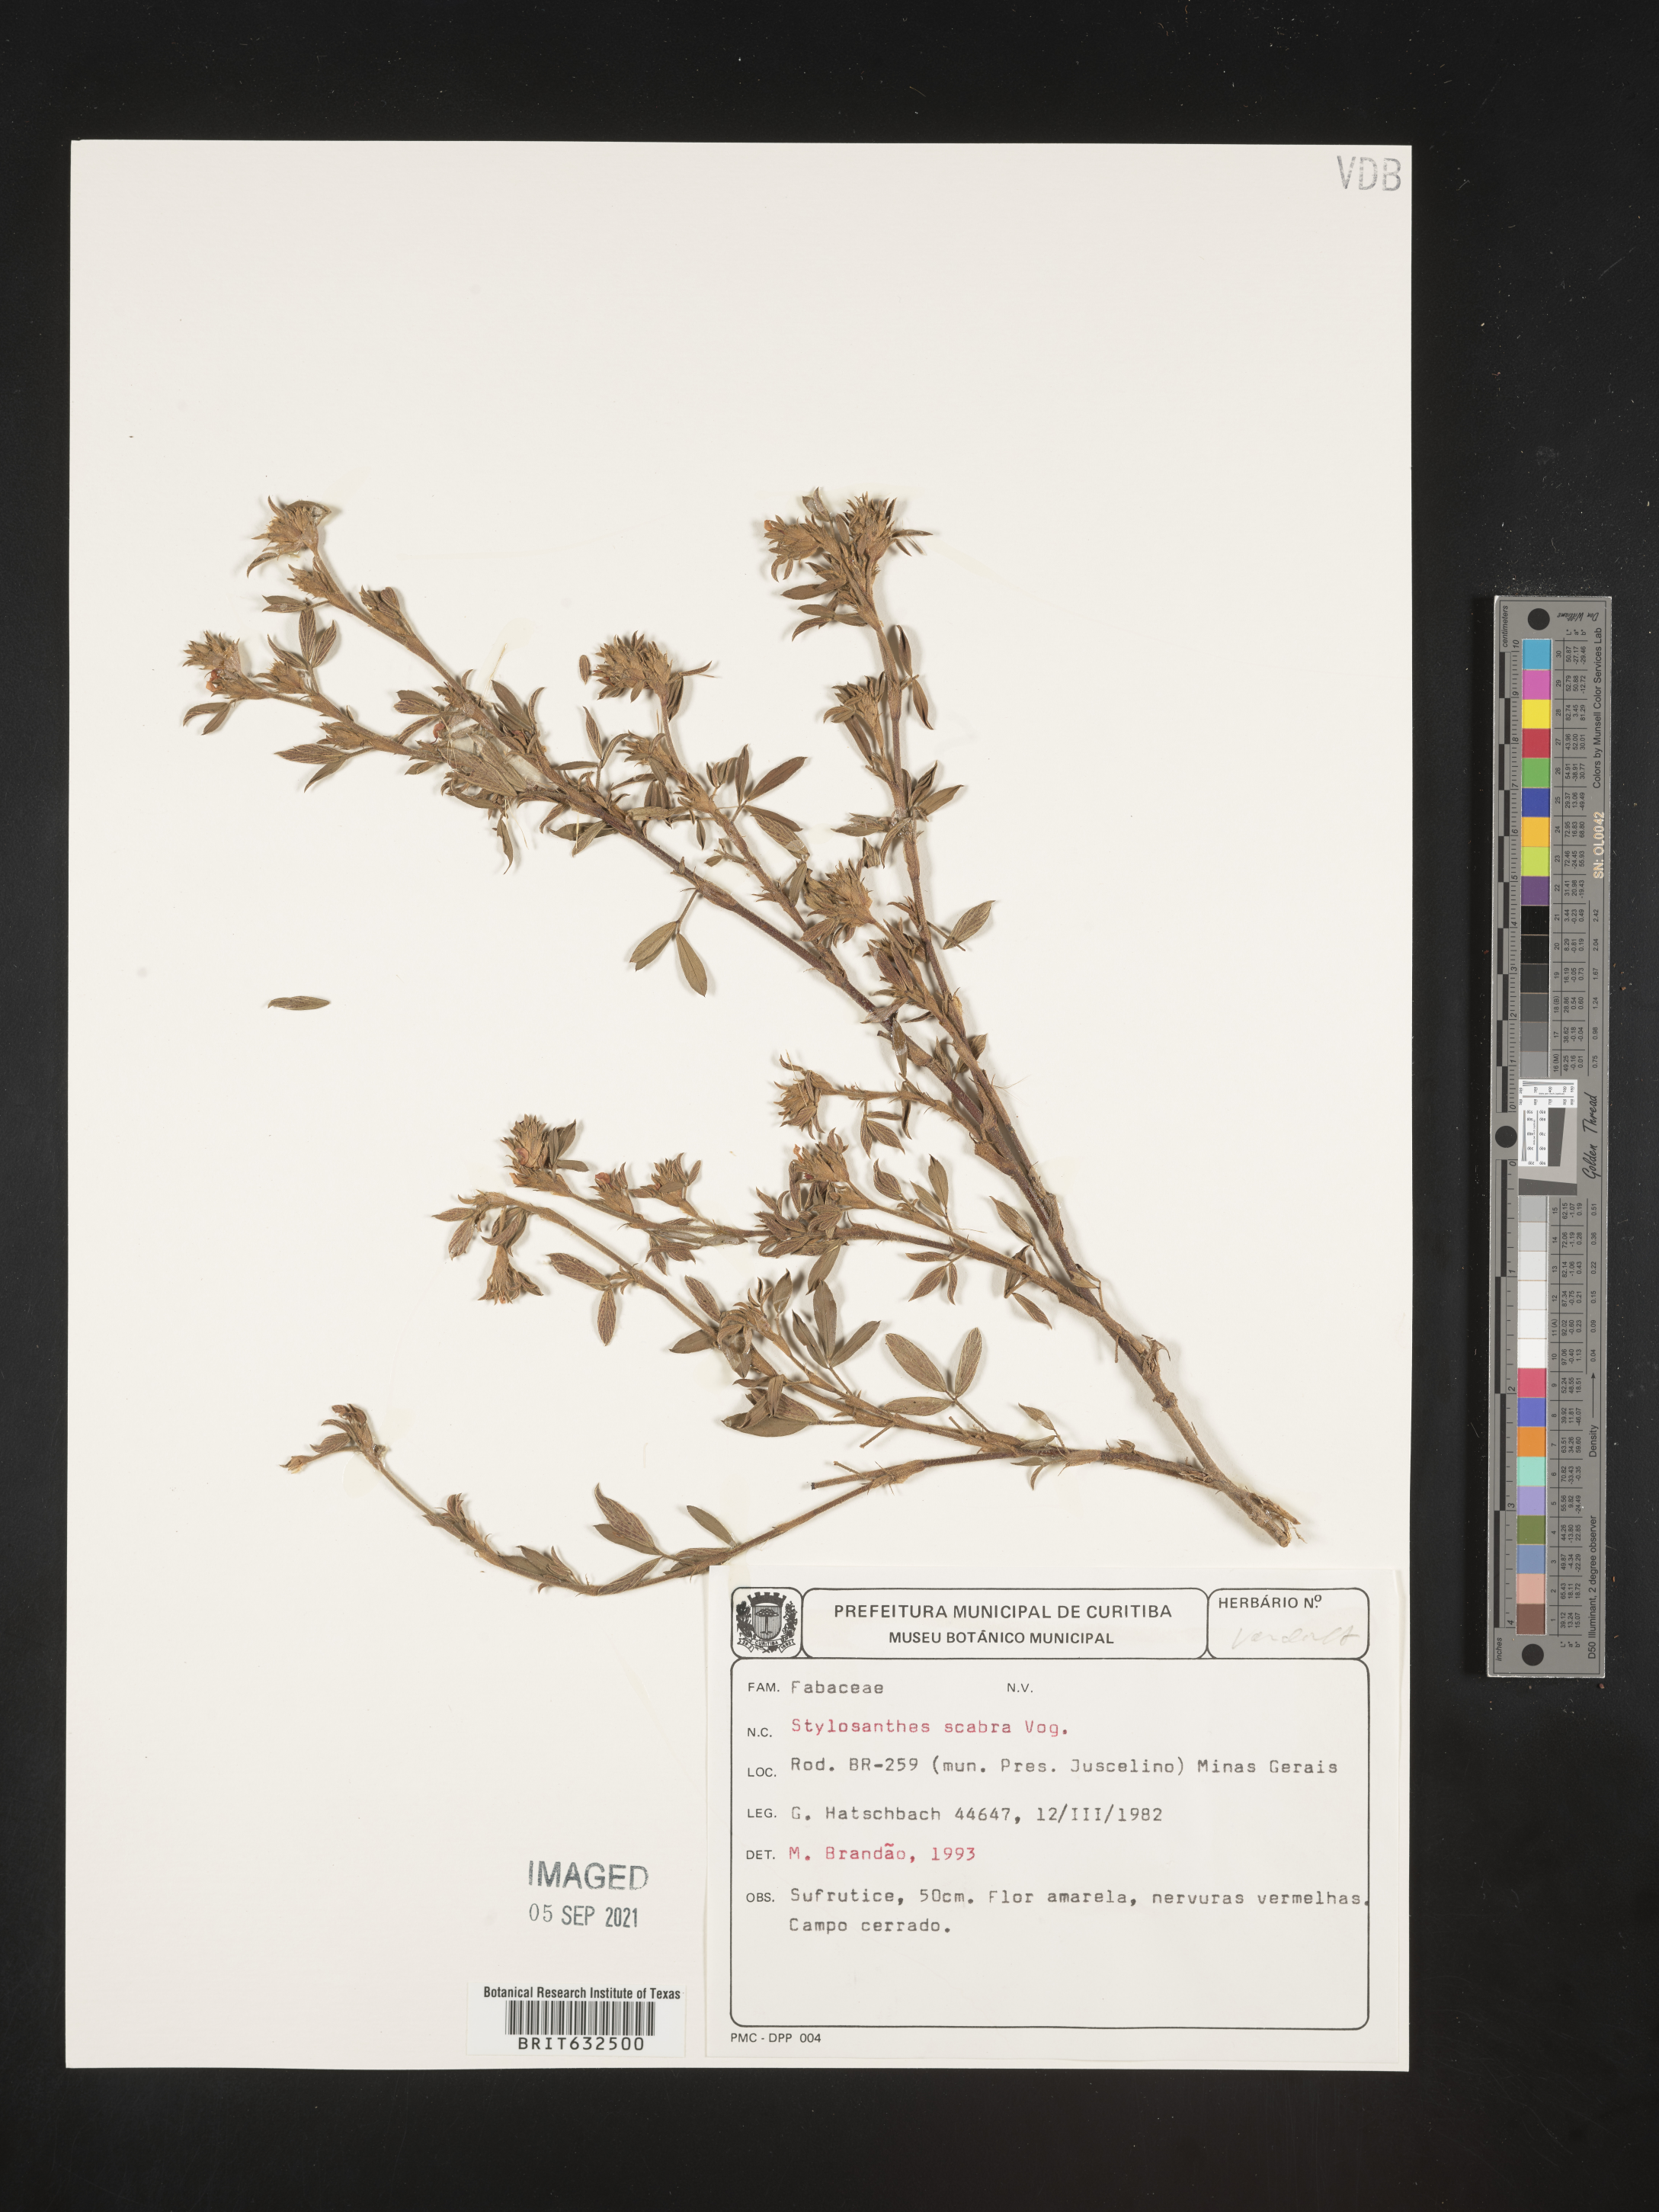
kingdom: Plantae
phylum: Tracheophyta
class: Magnoliopsida
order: Fabales
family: Fabaceae
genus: Stylosanthes
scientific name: Stylosanthes
